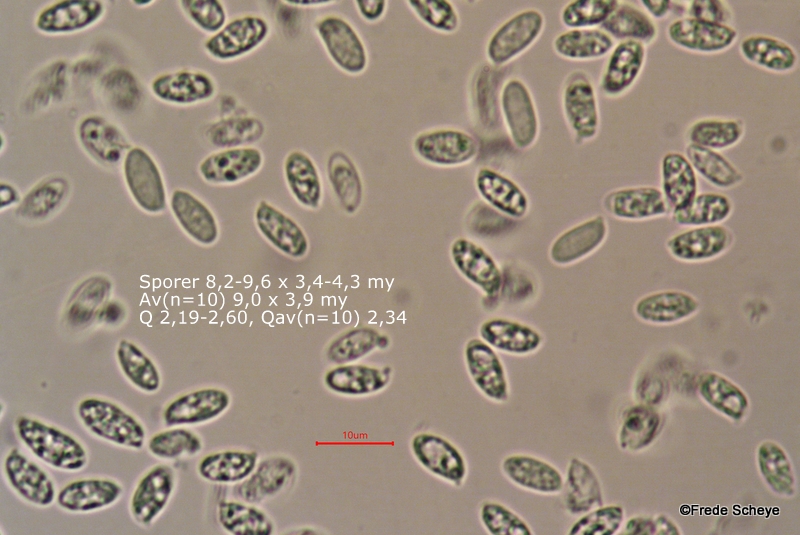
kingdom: Fungi
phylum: Basidiomycota
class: Agaricomycetes
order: Agaricales
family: Physalacriaceae
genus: Flammulina
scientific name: Flammulina velutipes
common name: gul fløjlsfod
